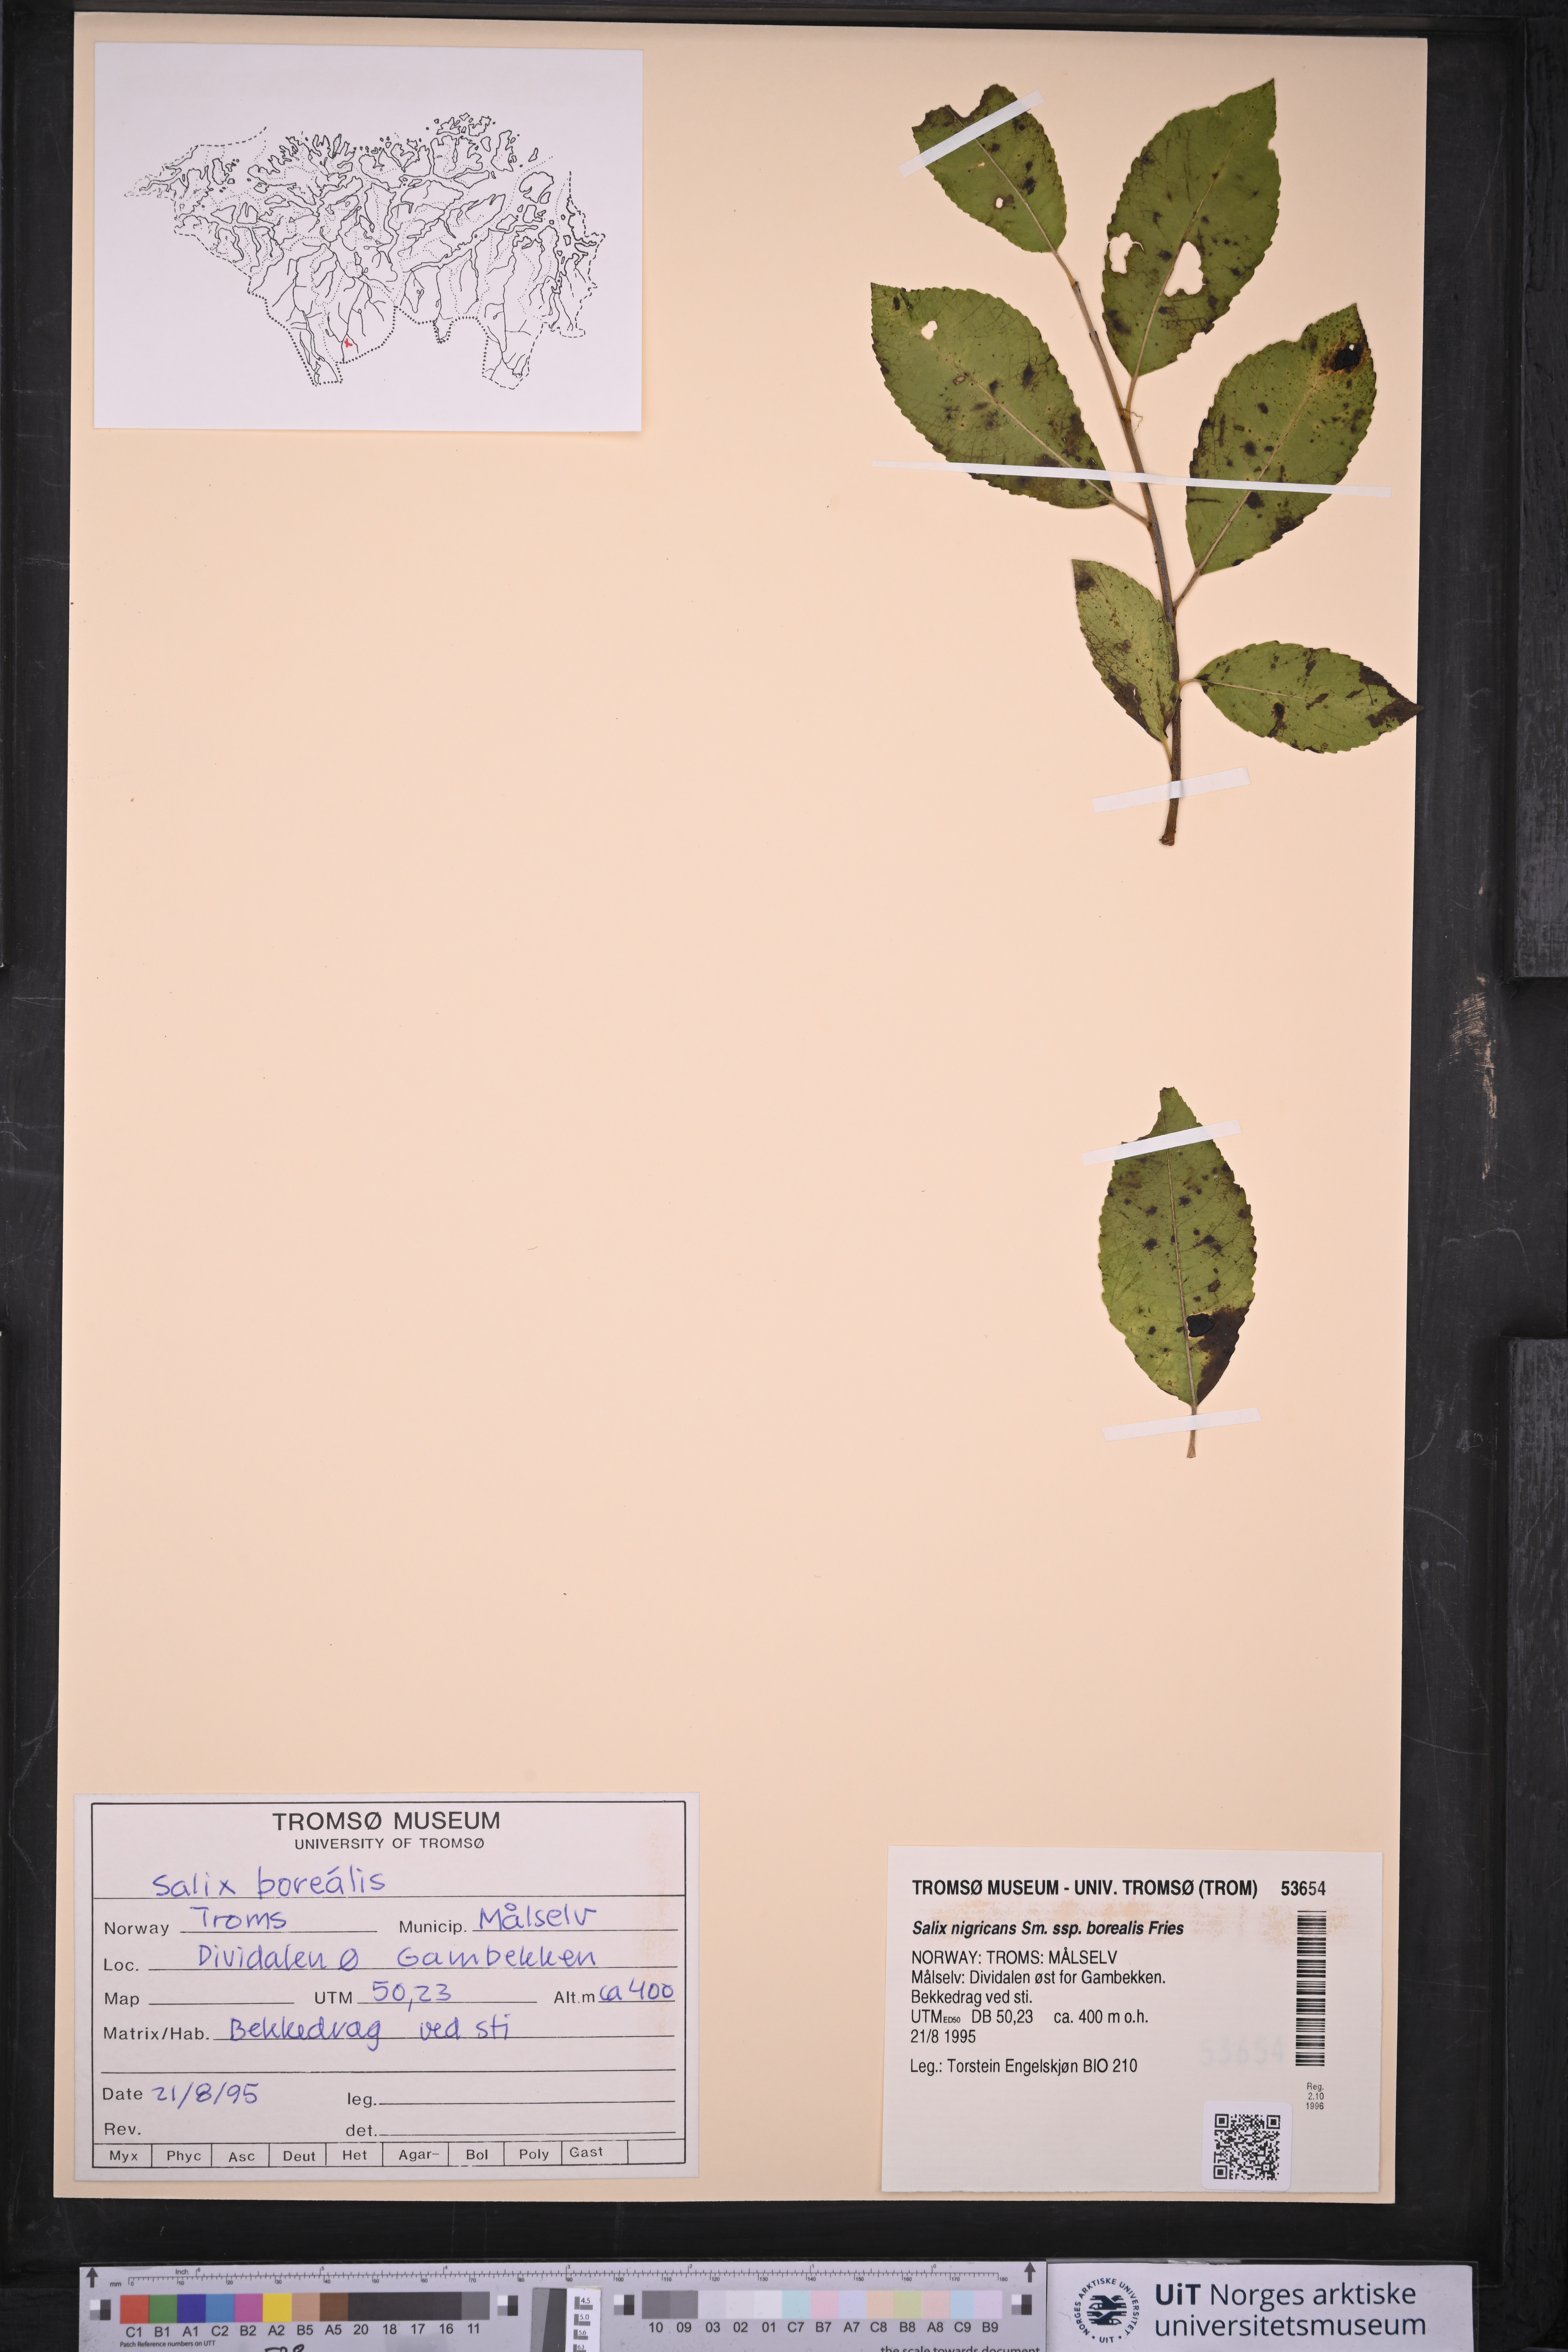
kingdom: Plantae
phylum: Tracheophyta
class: Magnoliopsida
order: Malpighiales
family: Salicaceae
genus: Salix
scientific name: Salix myrsinifolia
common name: Dark-leaved willow
